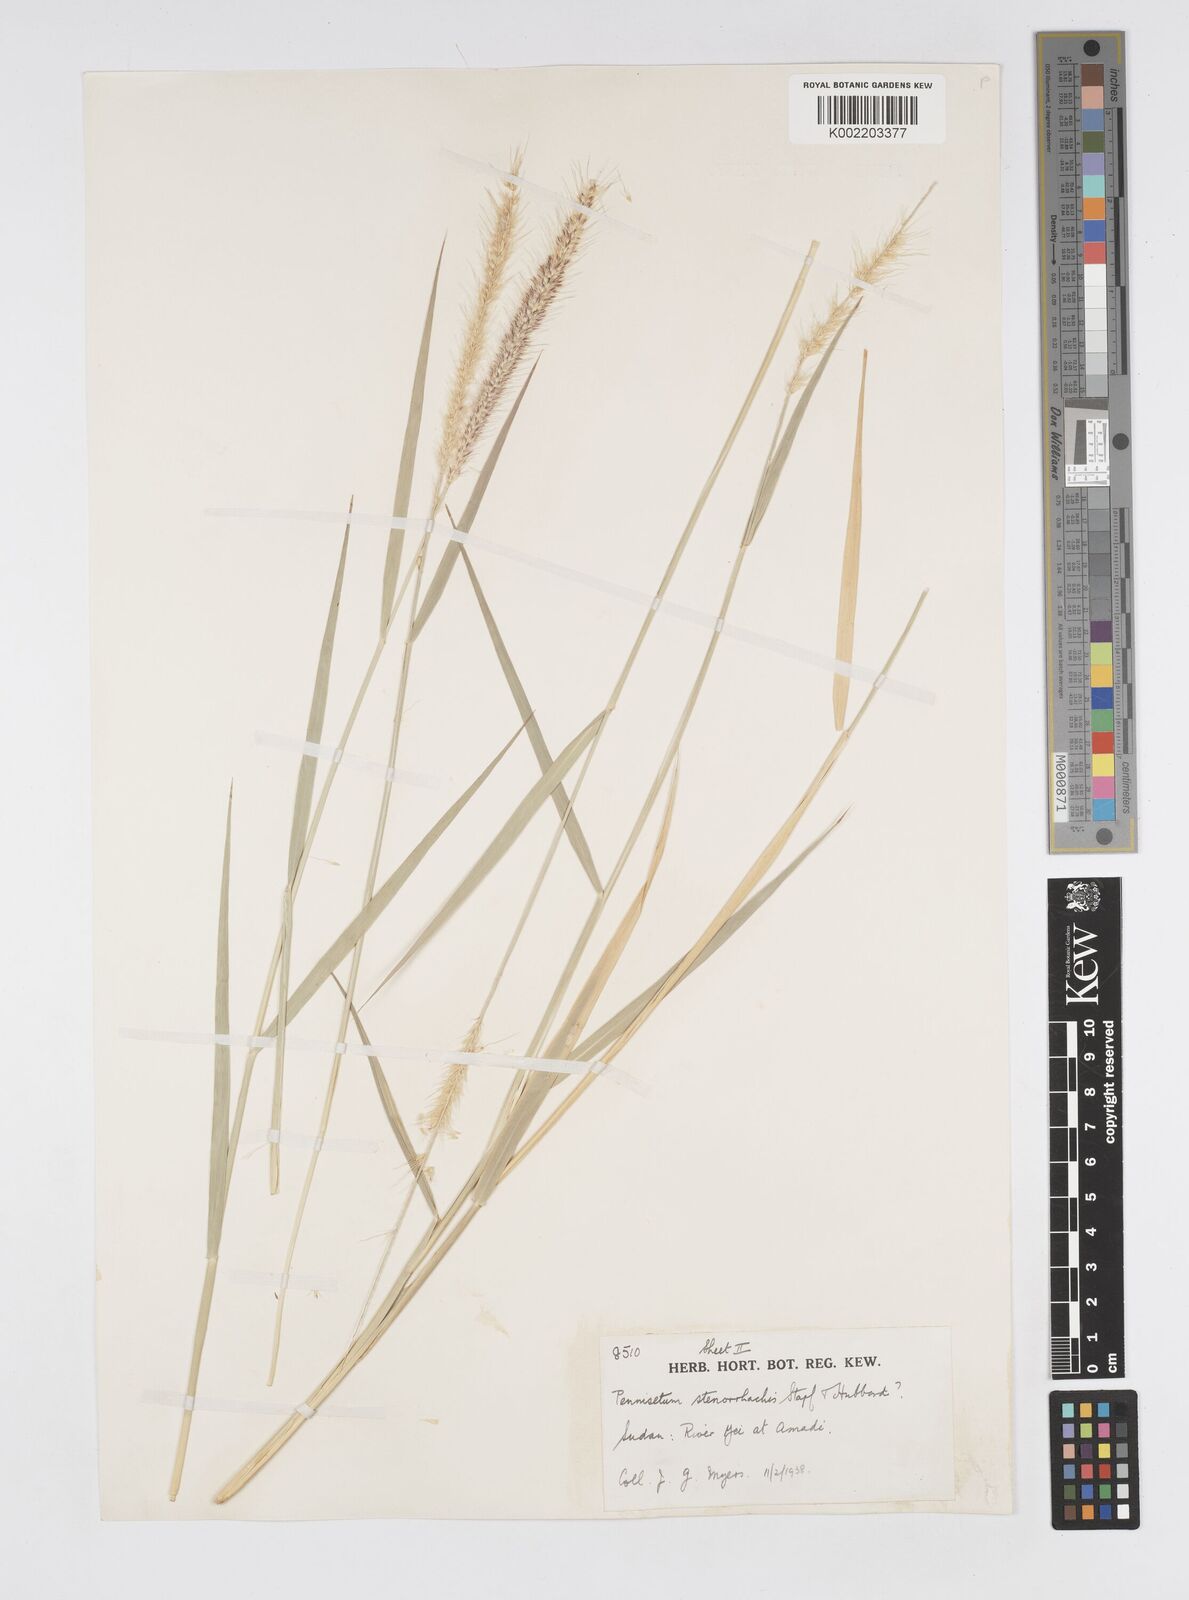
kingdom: Plantae
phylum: Tracheophyta
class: Liliopsida
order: Poales
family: Poaceae
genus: Cenchrus
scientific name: Cenchrus caudatus
